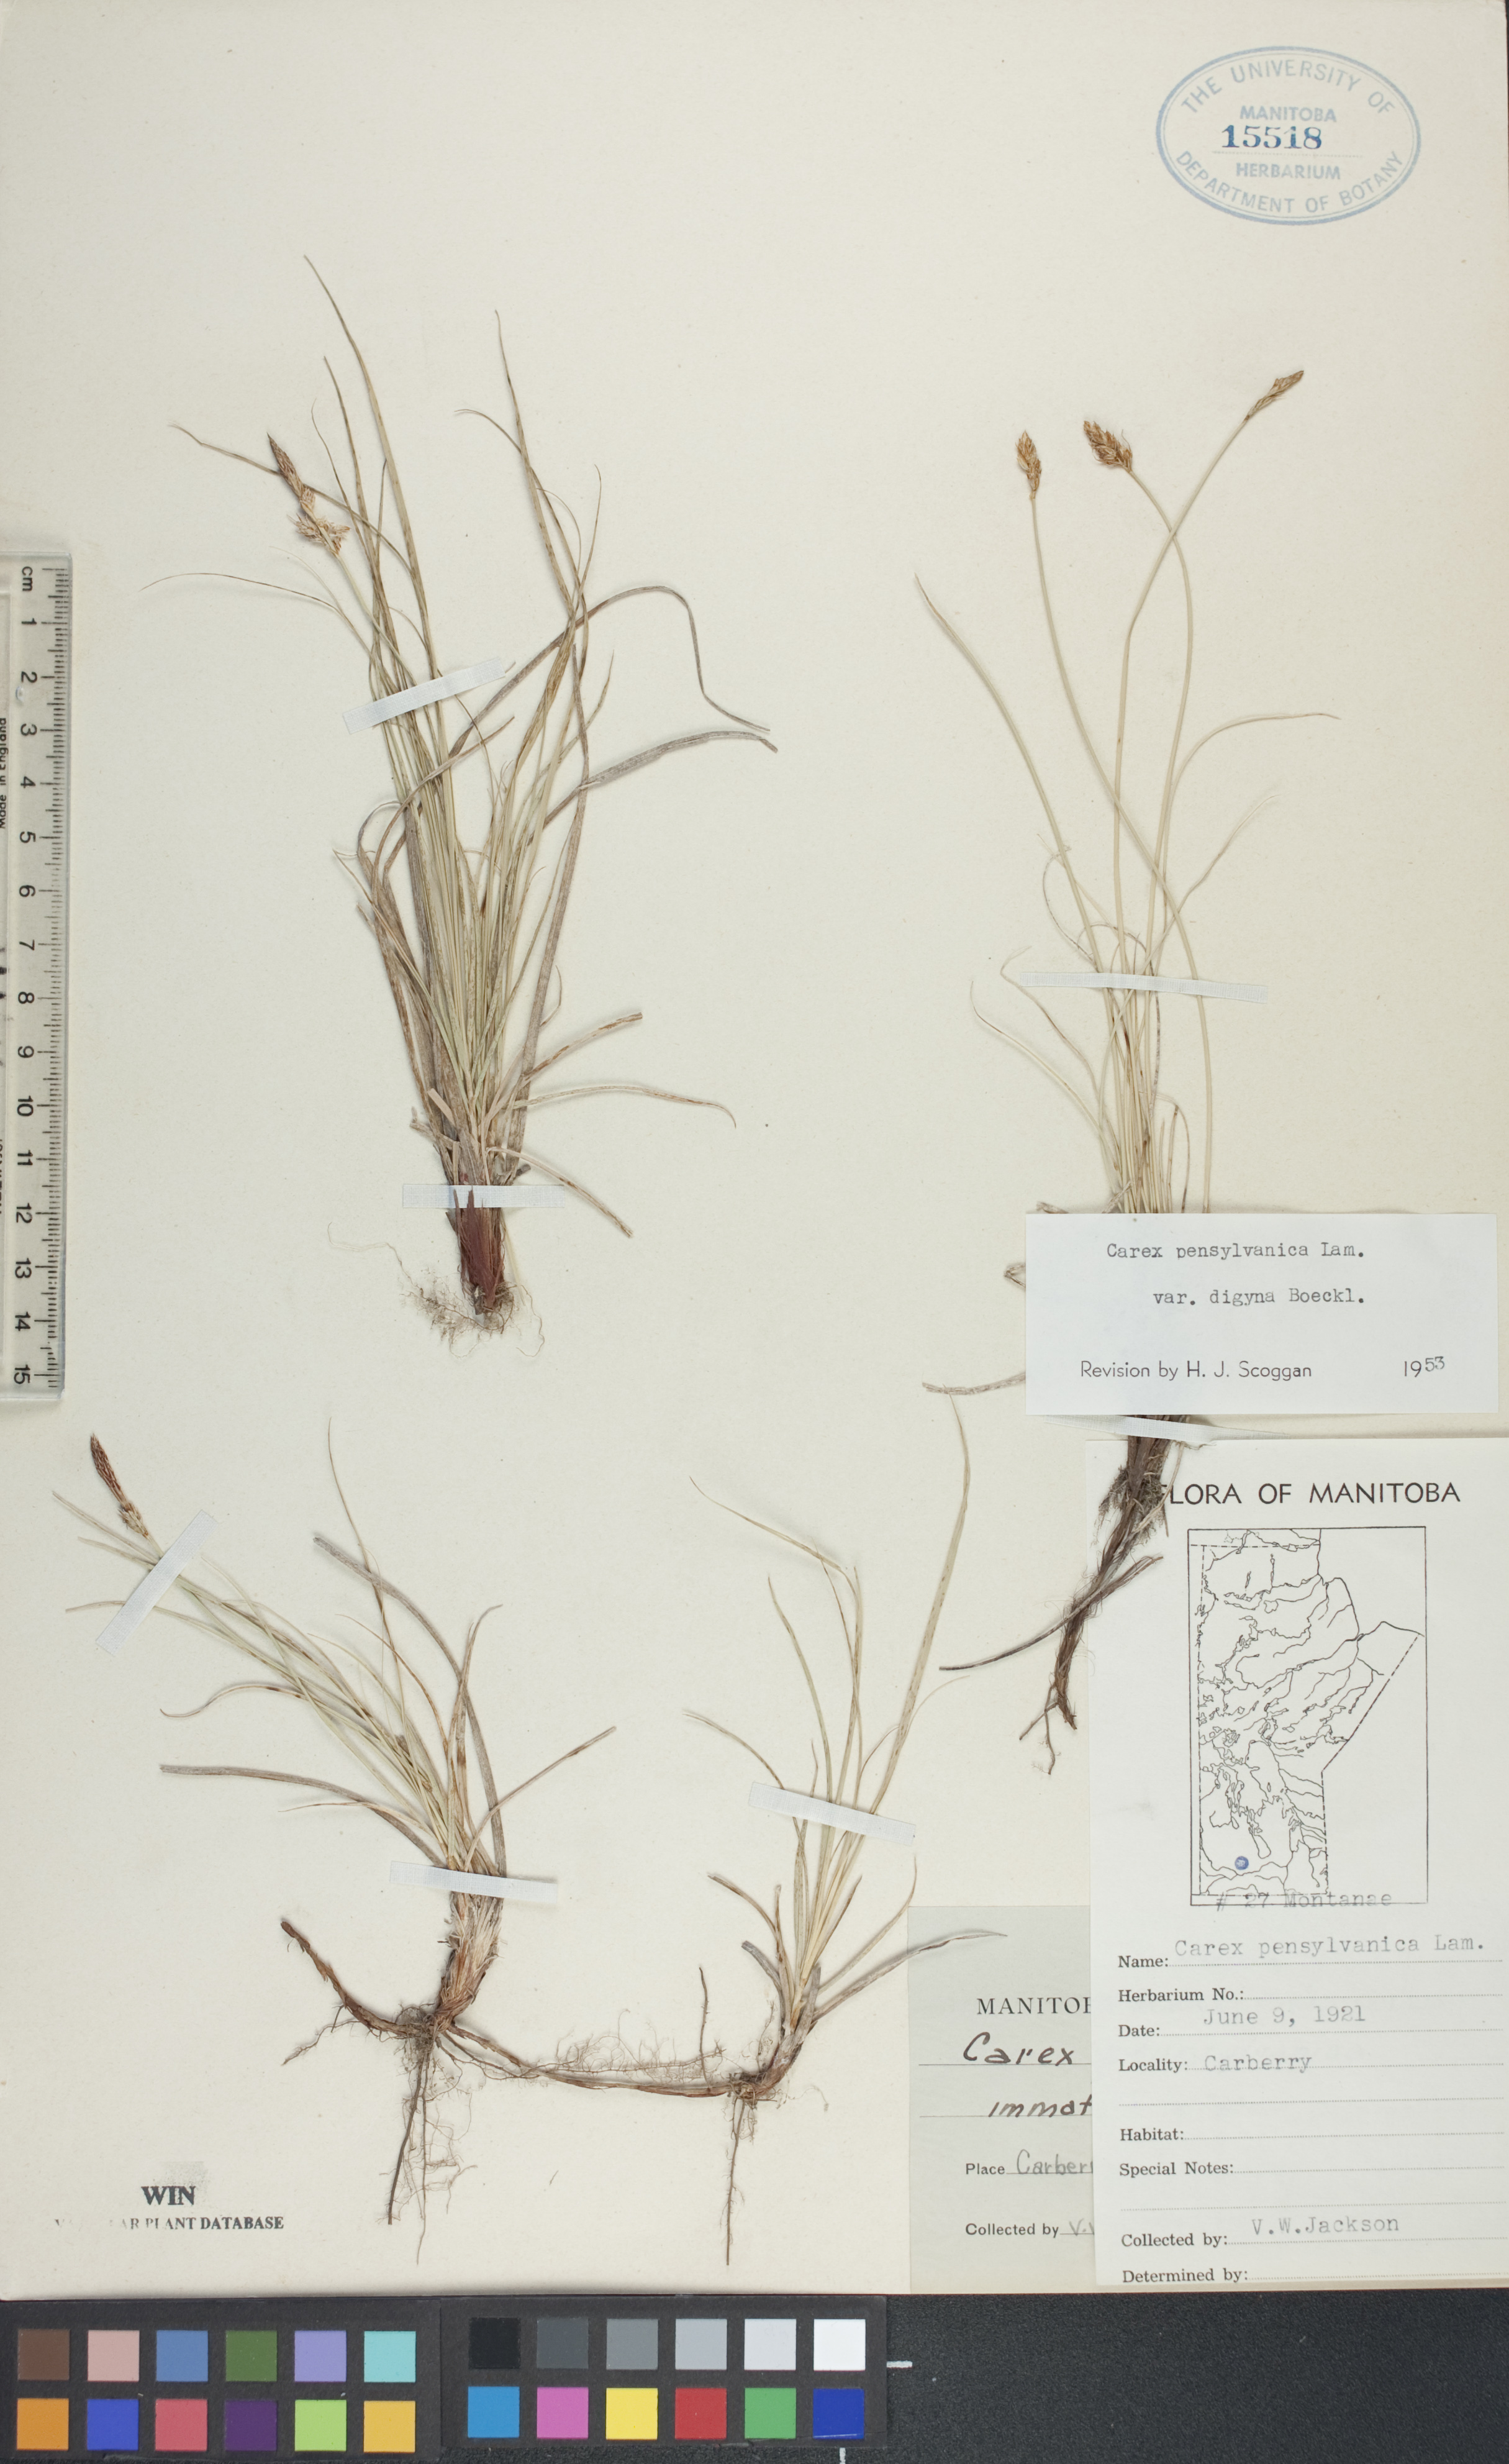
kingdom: Plantae
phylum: Tracheophyta
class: Liliopsida
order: Poales
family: Cyperaceae
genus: Carex
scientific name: Carex pensylvanica
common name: Common oak sedge
